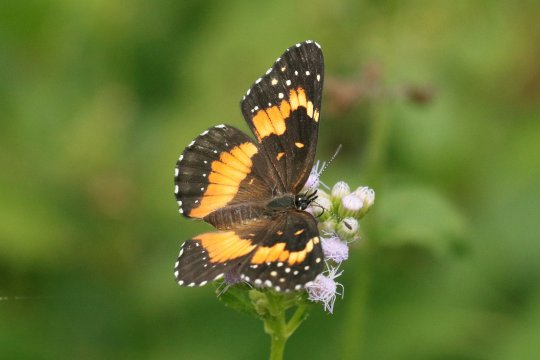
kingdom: Animalia
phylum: Arthropoda
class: Insecta
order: Lepidoptera
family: Nymphalidae
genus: Chlosyne
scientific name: Chlosyne lacinia
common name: Bordered Patch
